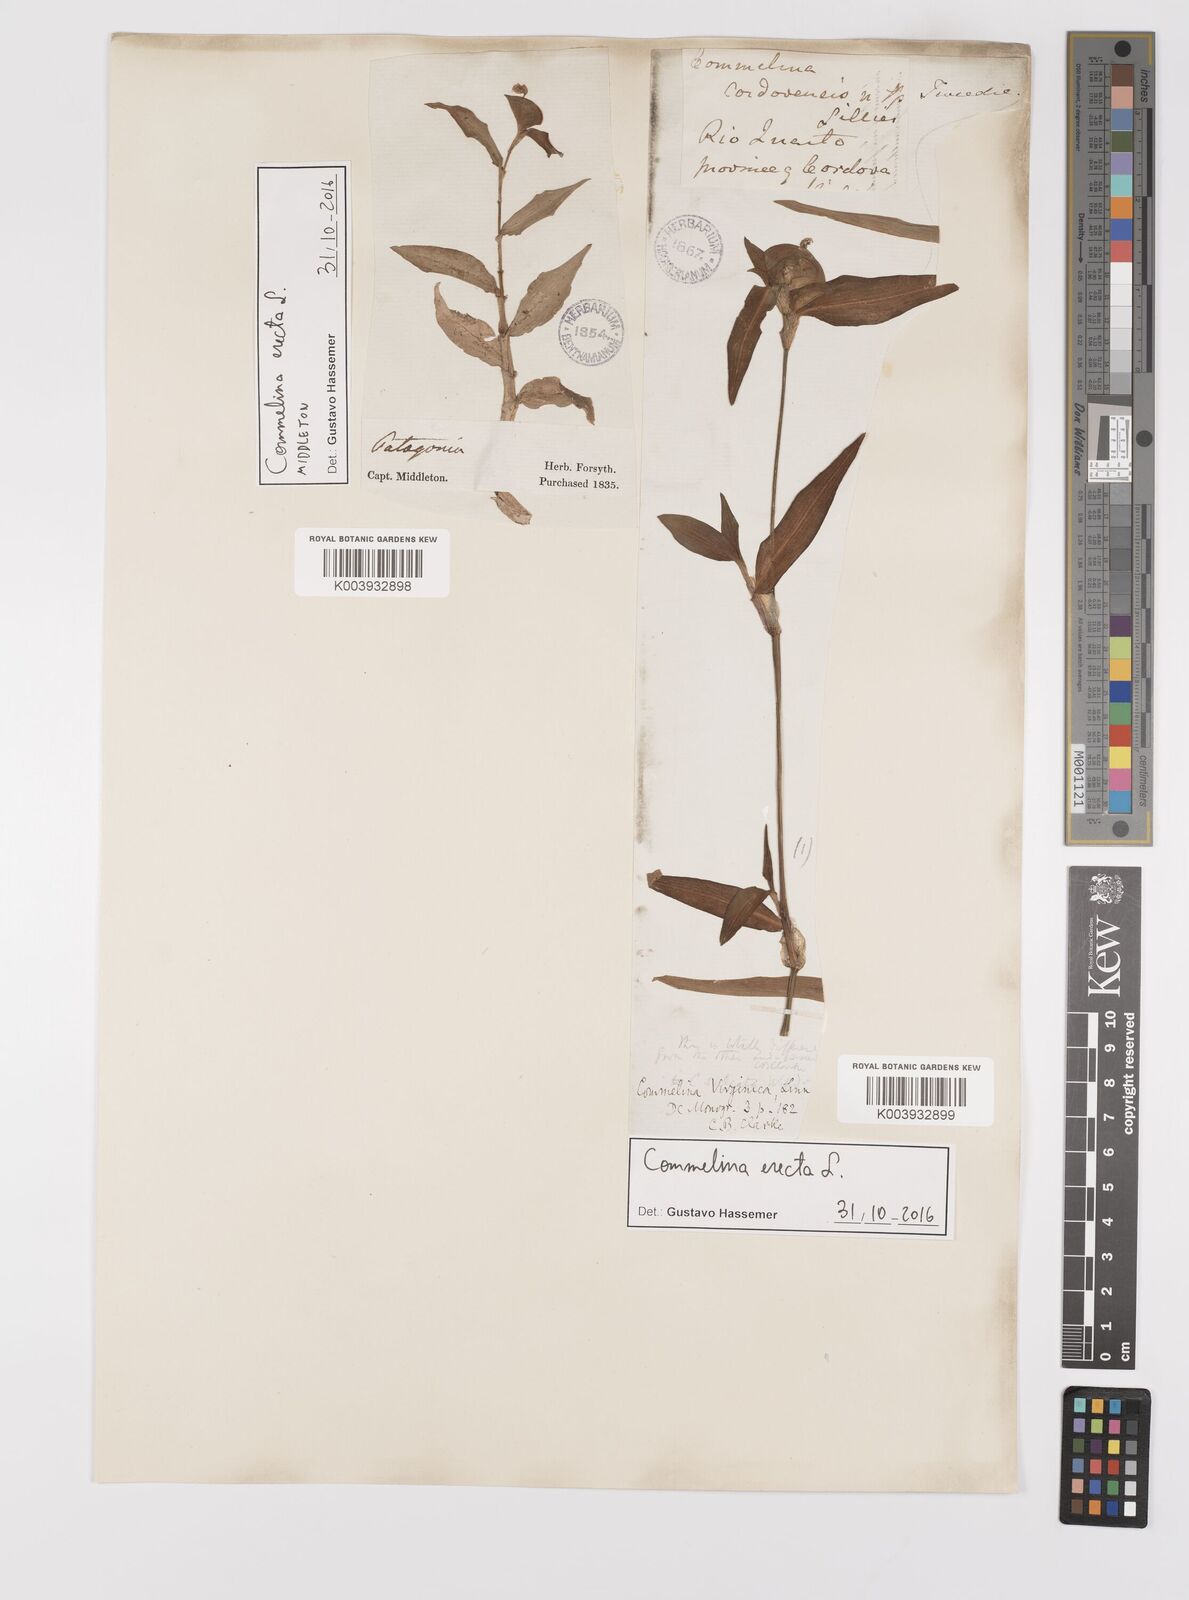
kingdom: Plantae
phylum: Tracheophyta
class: Liliopsida
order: Commelinales
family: Commelinaceae
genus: Commelina
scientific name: Commelina erecta
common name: Blousel blommetjie
